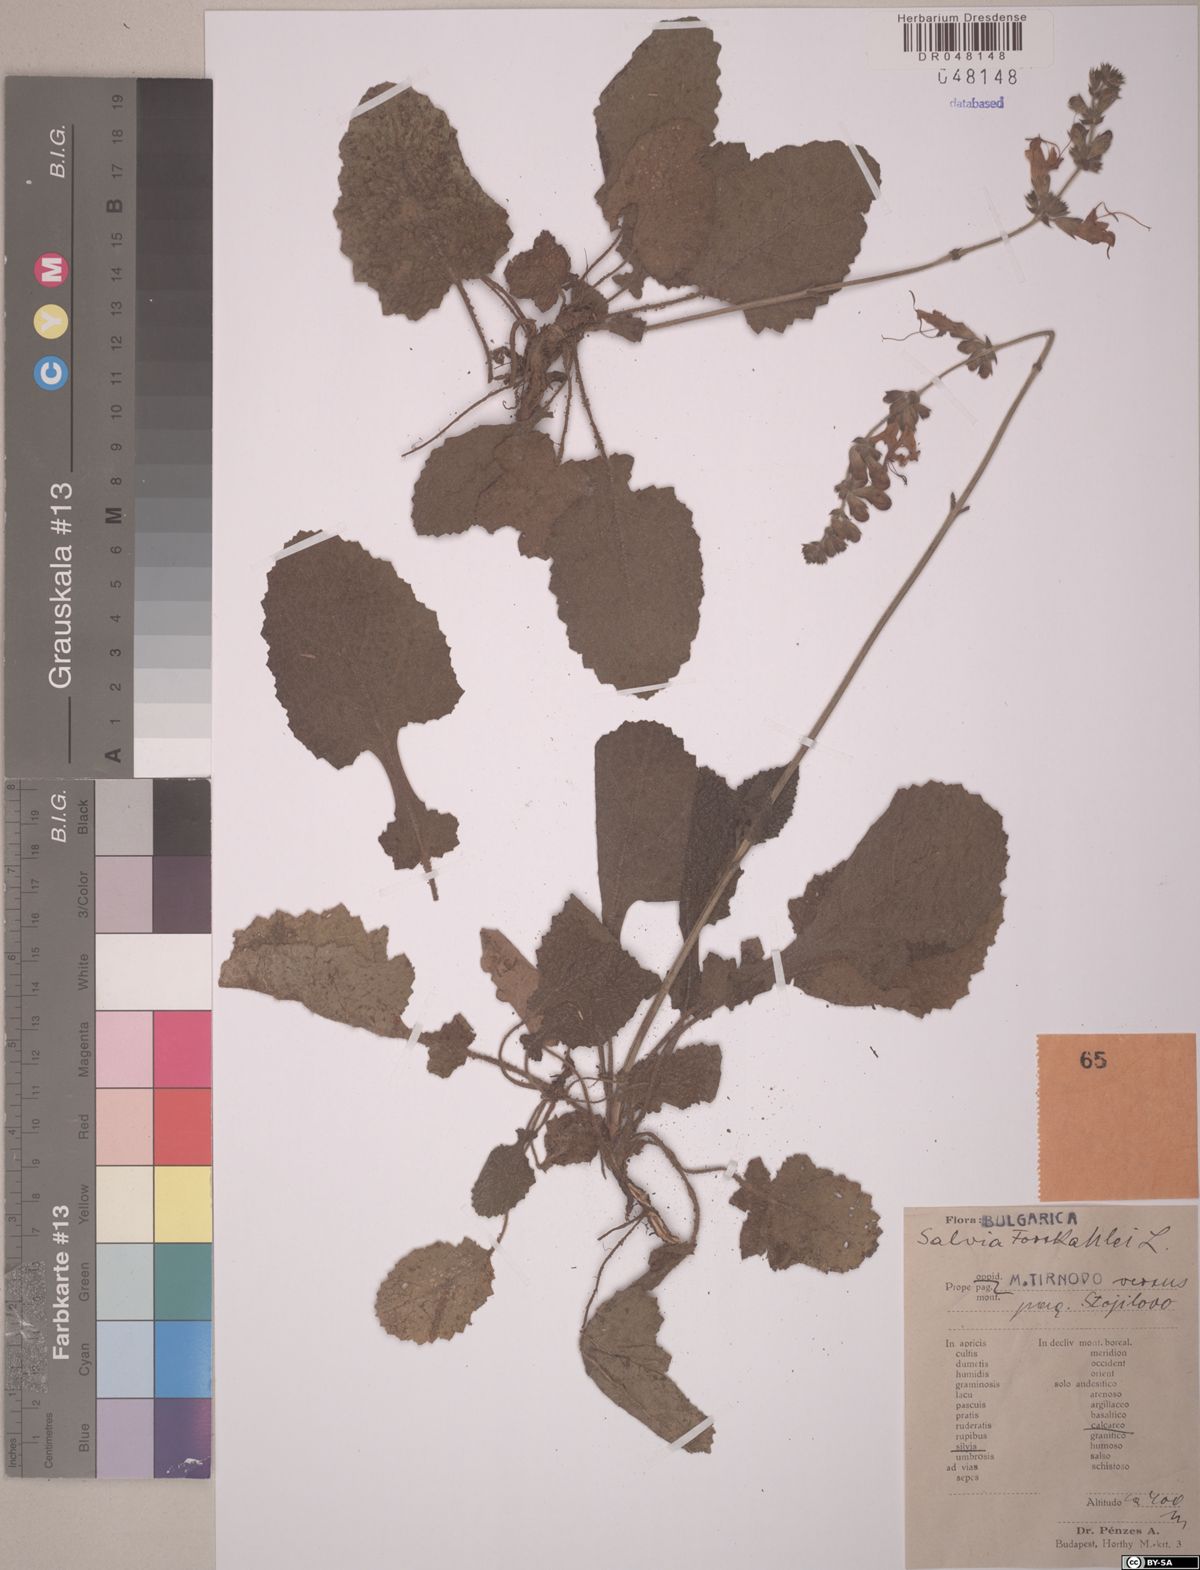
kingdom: Plantae
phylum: Tracheophyta
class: Magnoliopsida
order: Lamiales
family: Lamiaceae
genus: Salvia
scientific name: Salvia forskahlii
